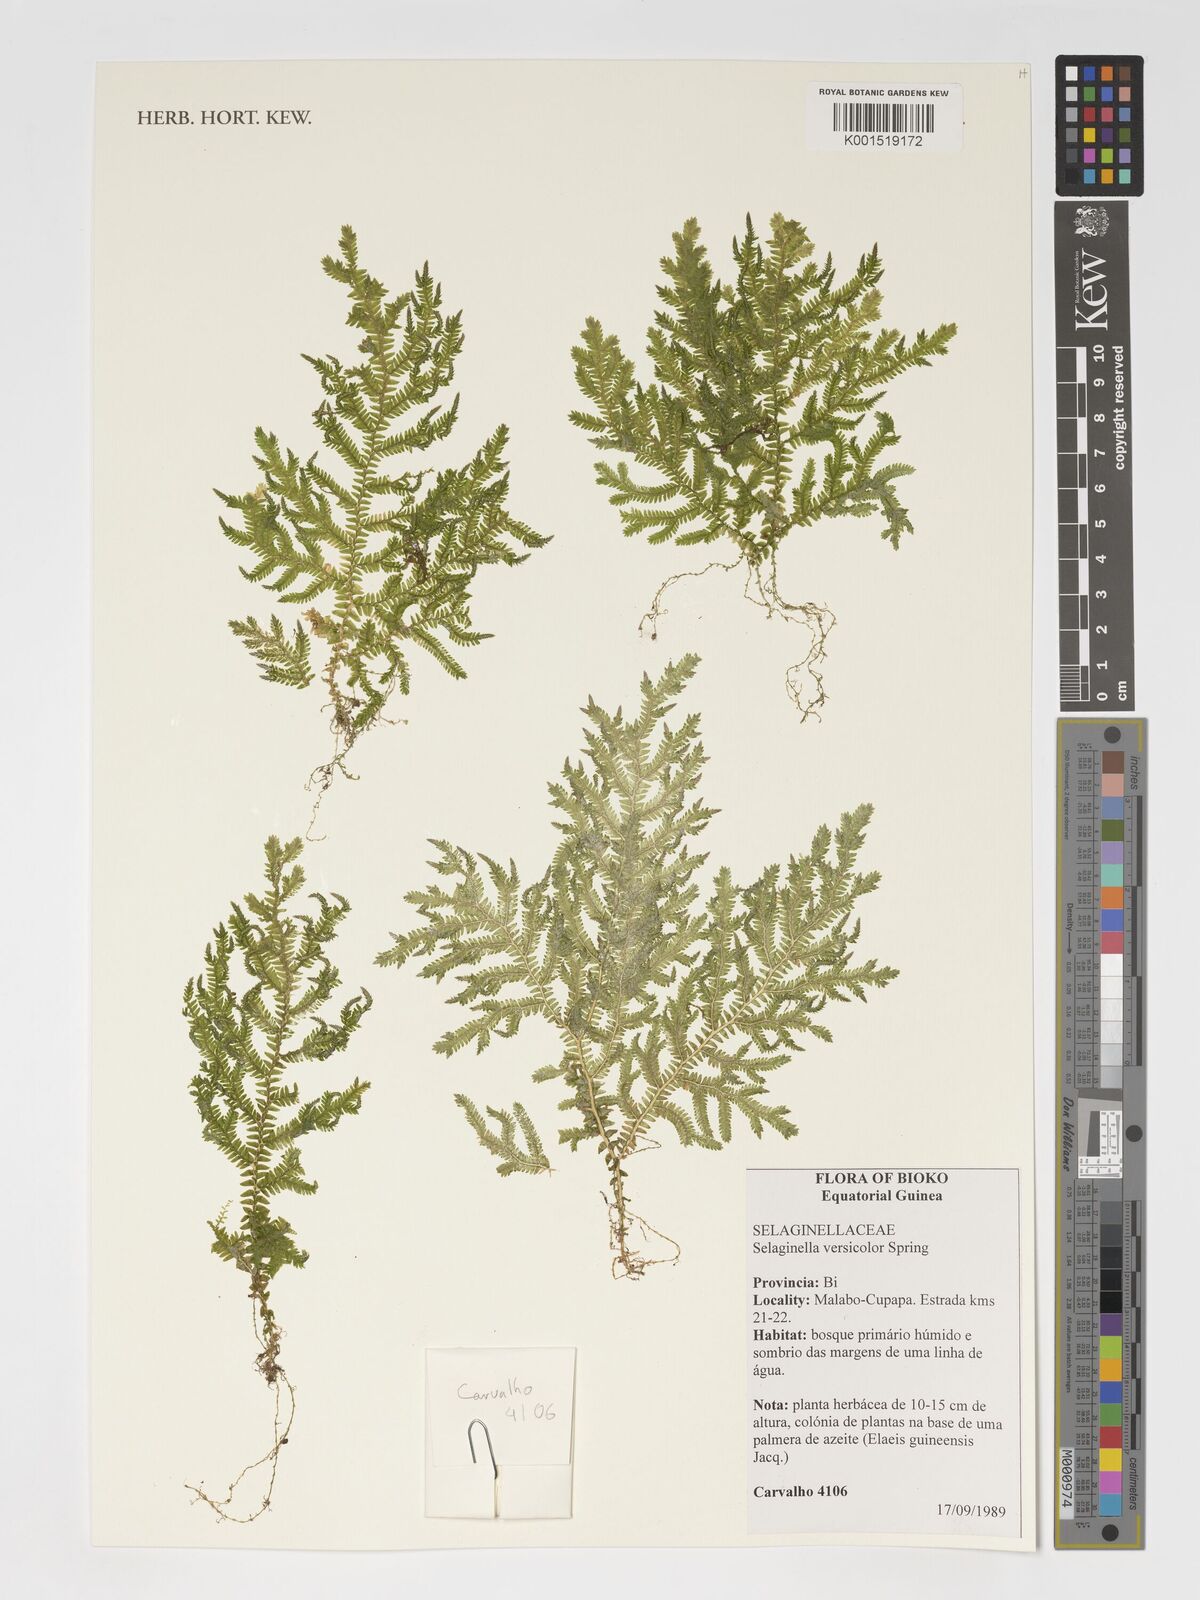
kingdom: Plantae
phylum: Tracheophyta
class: Lycopodiopsida
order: Selaginellales
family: Selaginellaceae
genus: Selaginella
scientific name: Selaginella versicolor
